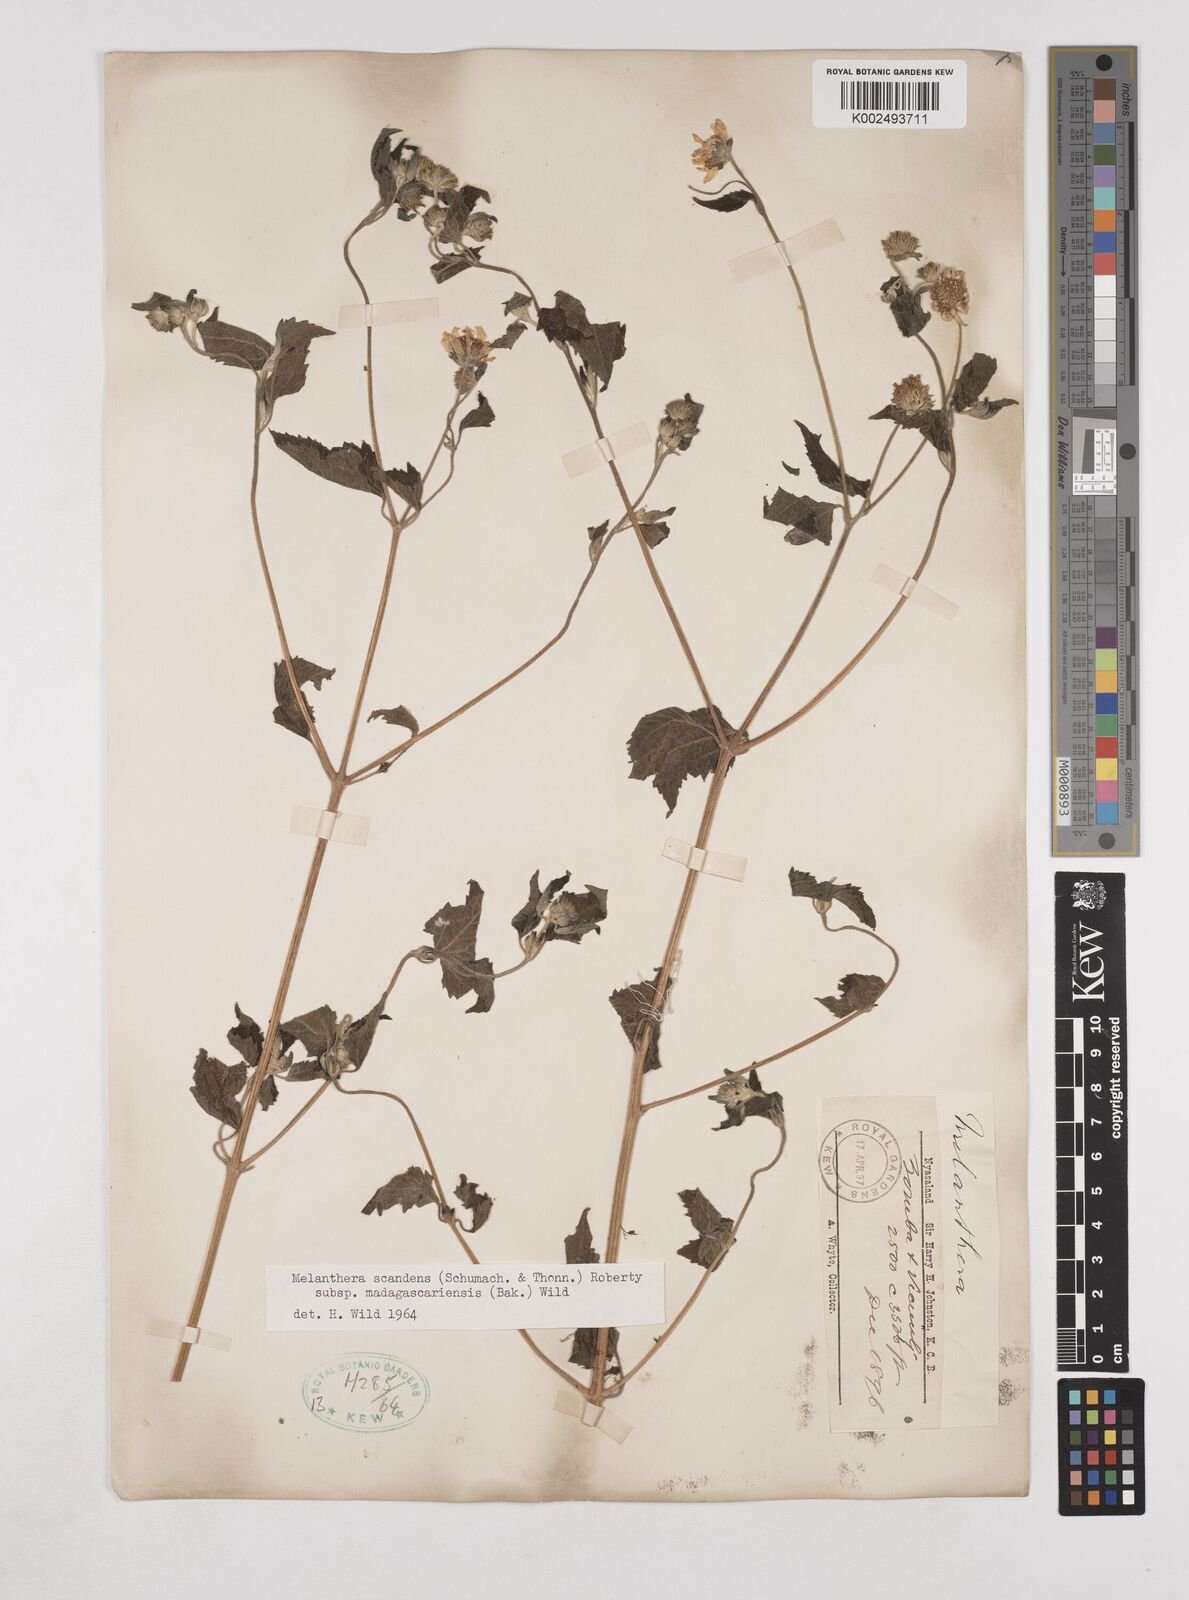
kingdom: Plantae
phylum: Tracheophyta
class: Magnoliopsida
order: Asterales
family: Asteraceae
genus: Lipotriche
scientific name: Lipotriche scandens
